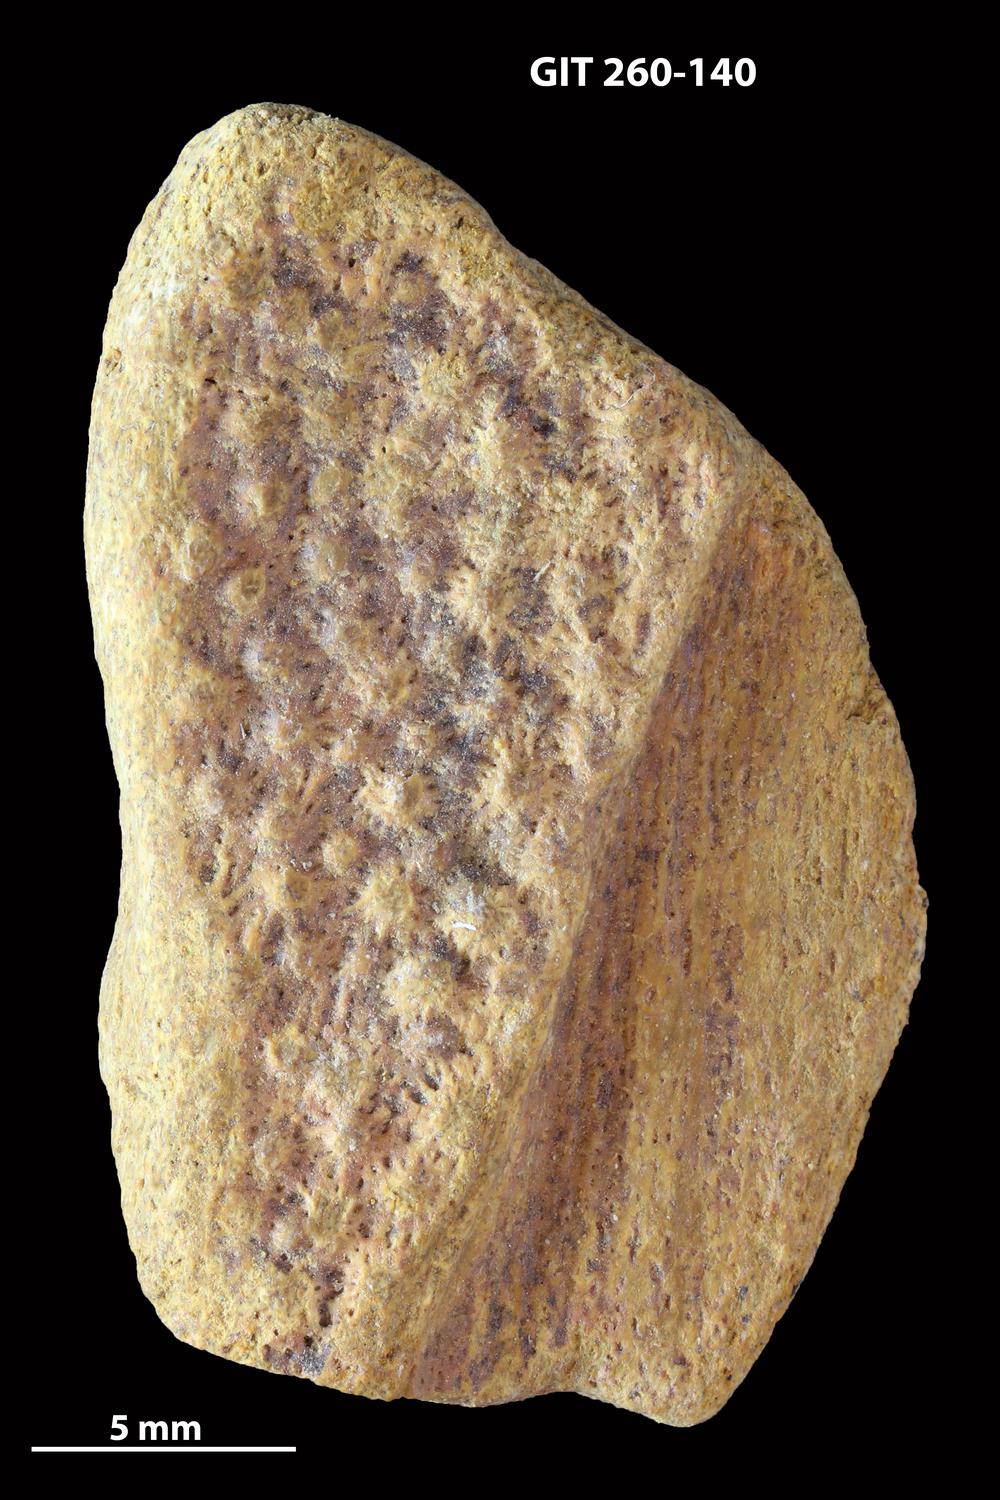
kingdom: Animalia
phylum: Chordata
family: Homostiidae
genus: Homostius
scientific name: Homostius
